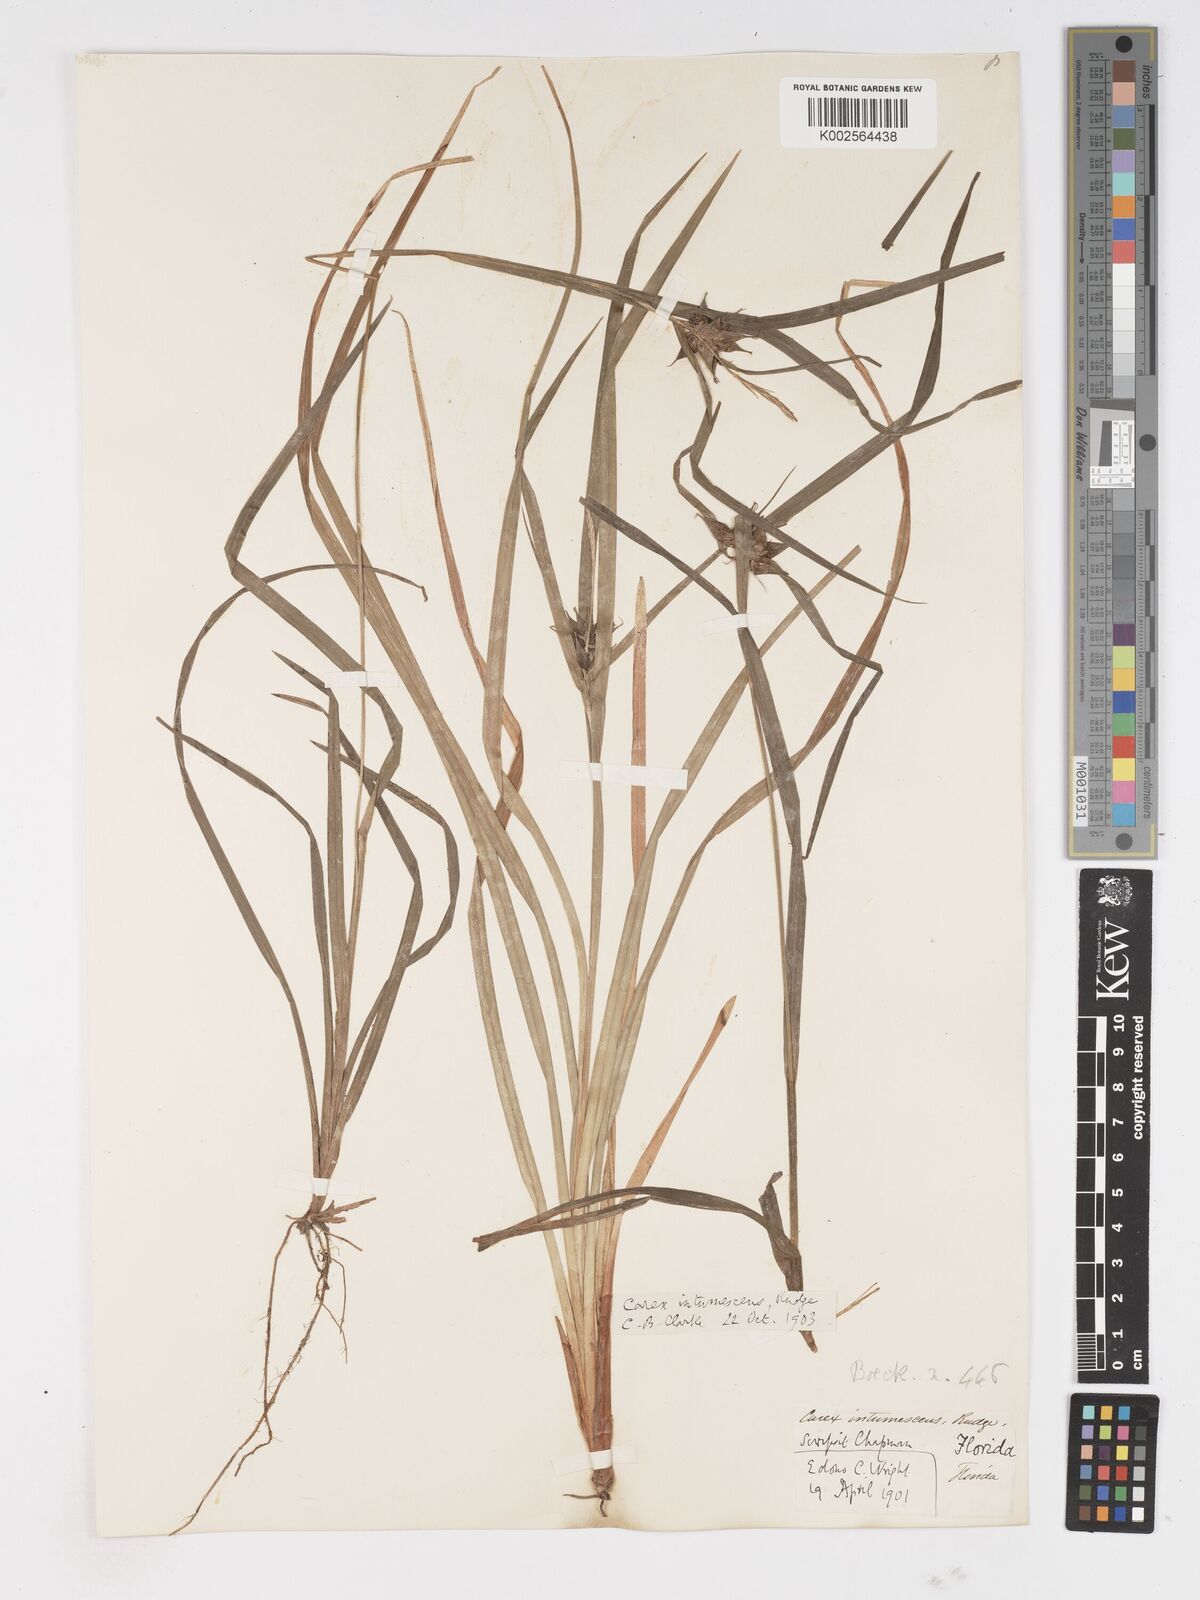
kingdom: Plantae
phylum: Tracheophyta
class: Liliopsida
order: Poales
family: Cyperaceae
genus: Carex
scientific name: Carex intumescens
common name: Greater bladder sedge
